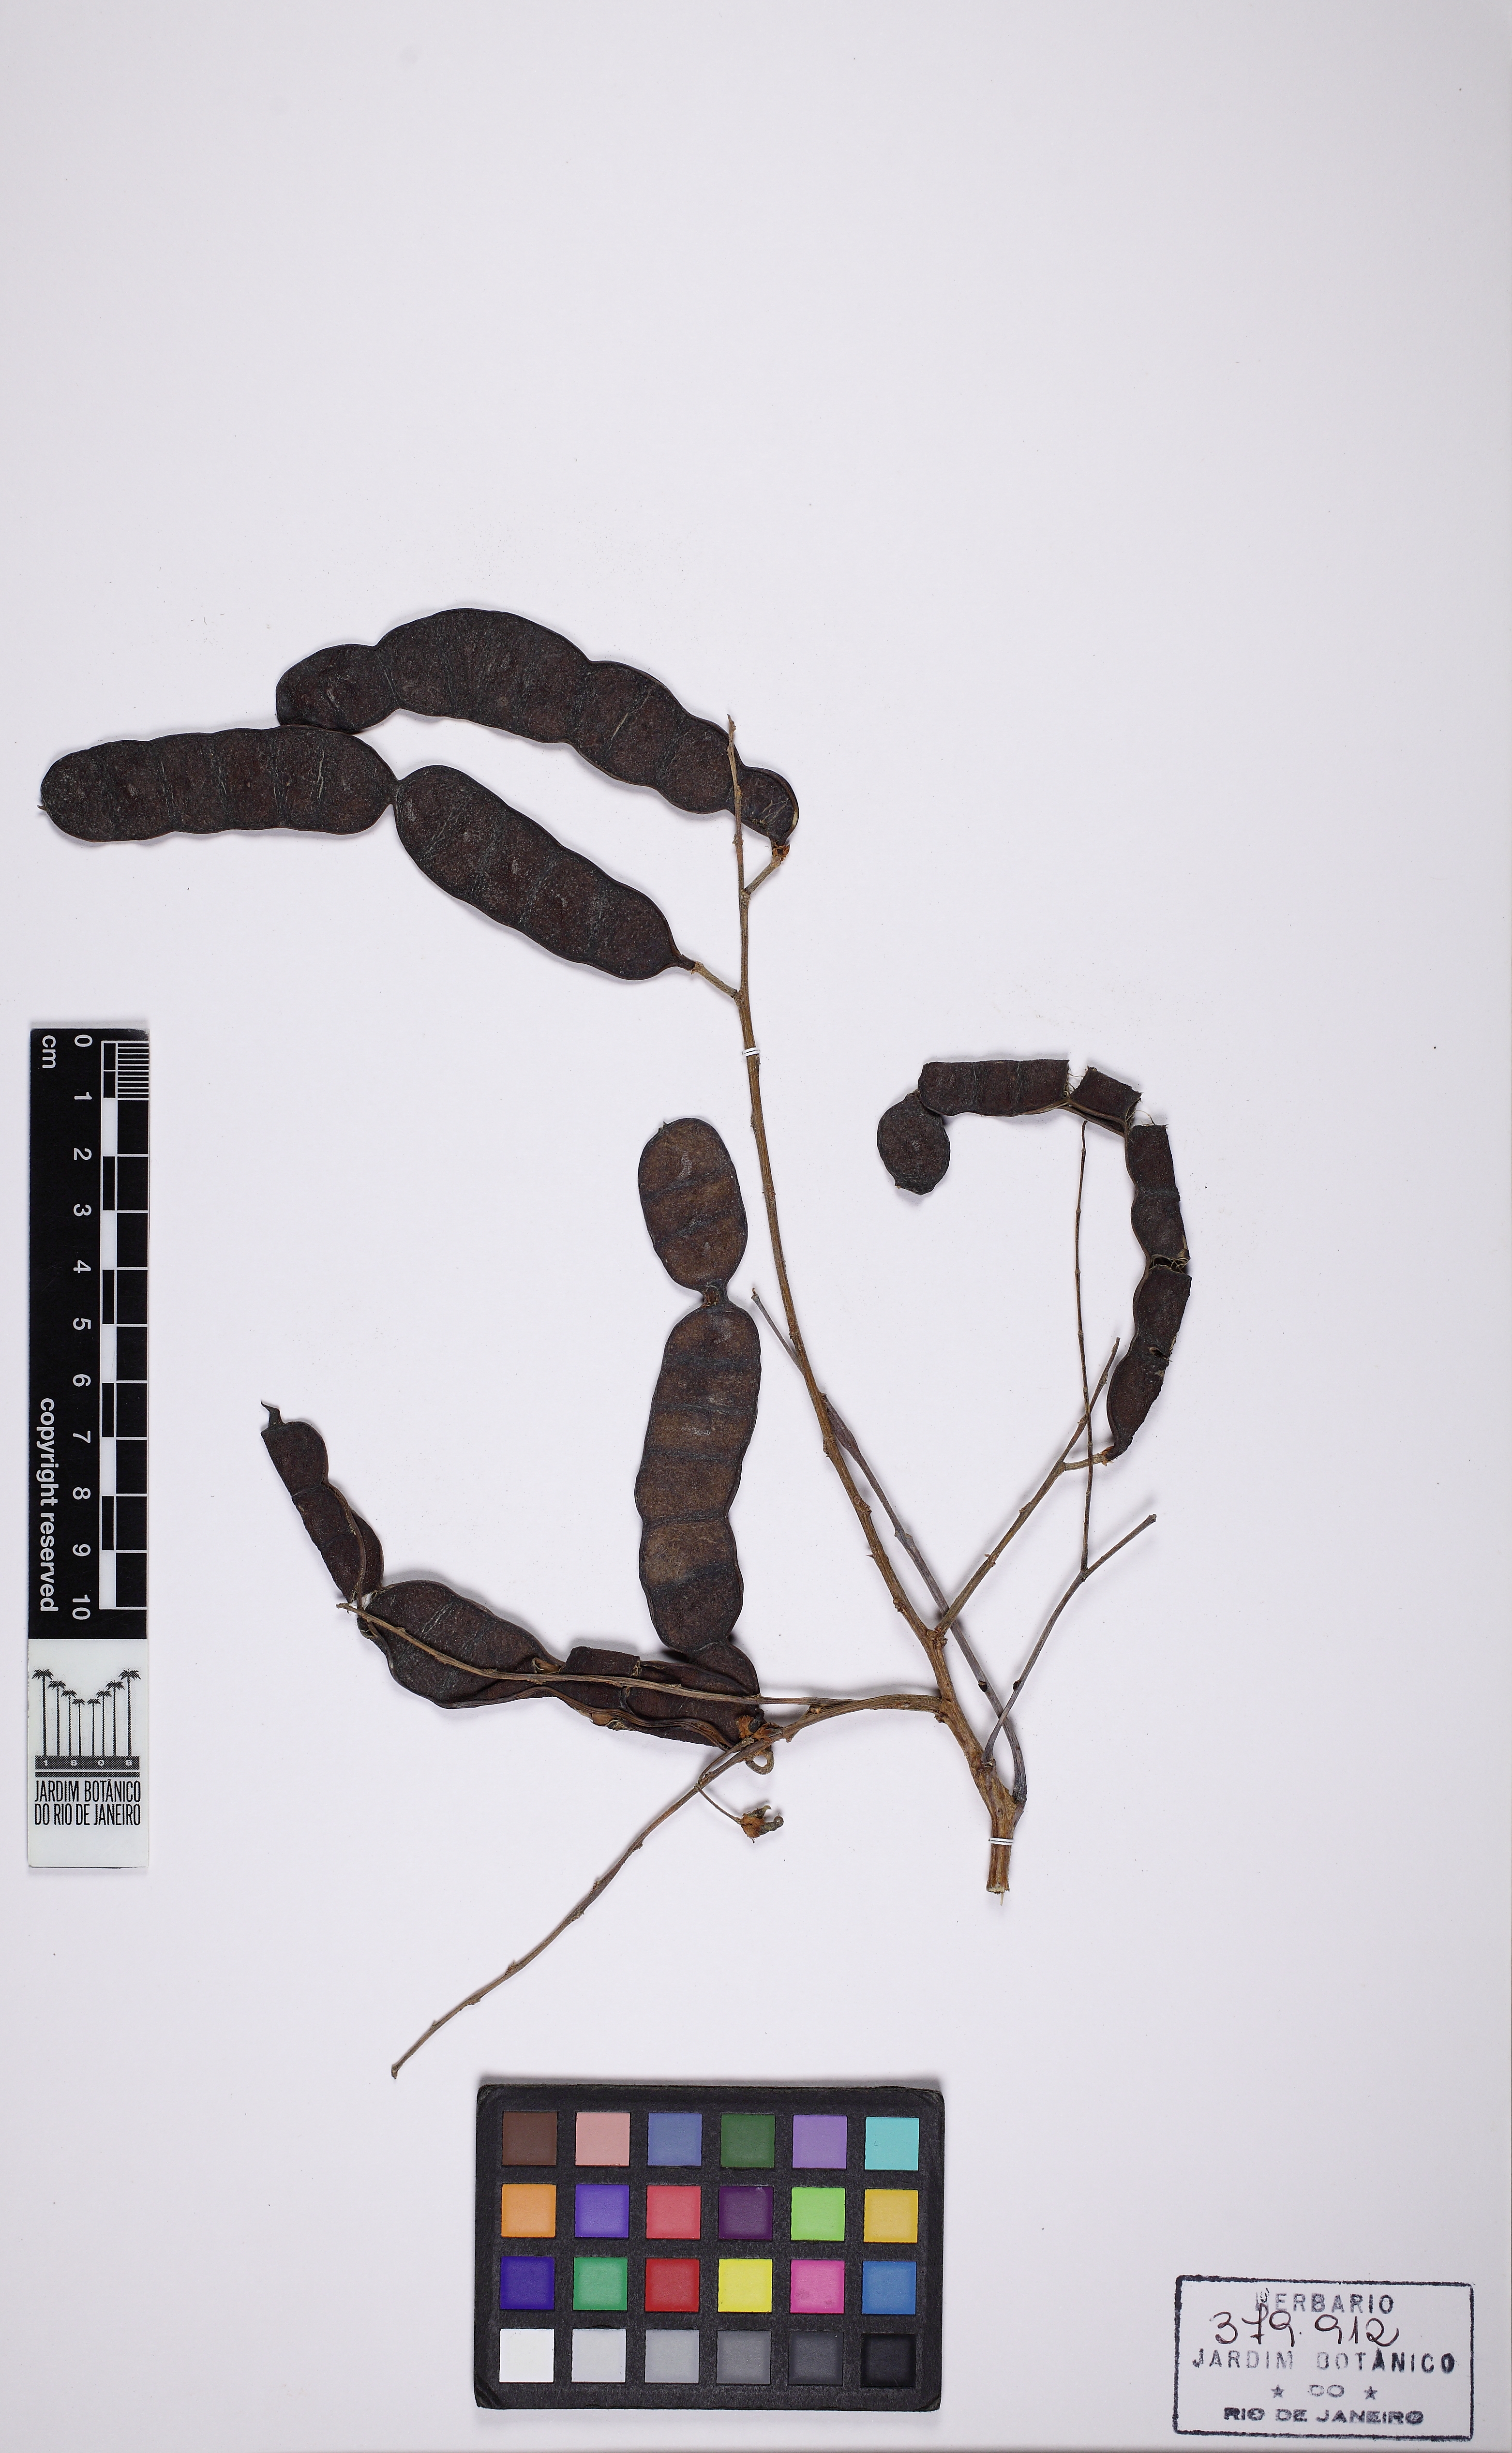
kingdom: Plantae
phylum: Tracheophyta
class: Magnoliopsida
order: Fabales
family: Fabaceae
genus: Albizia
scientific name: Albizia inundata
